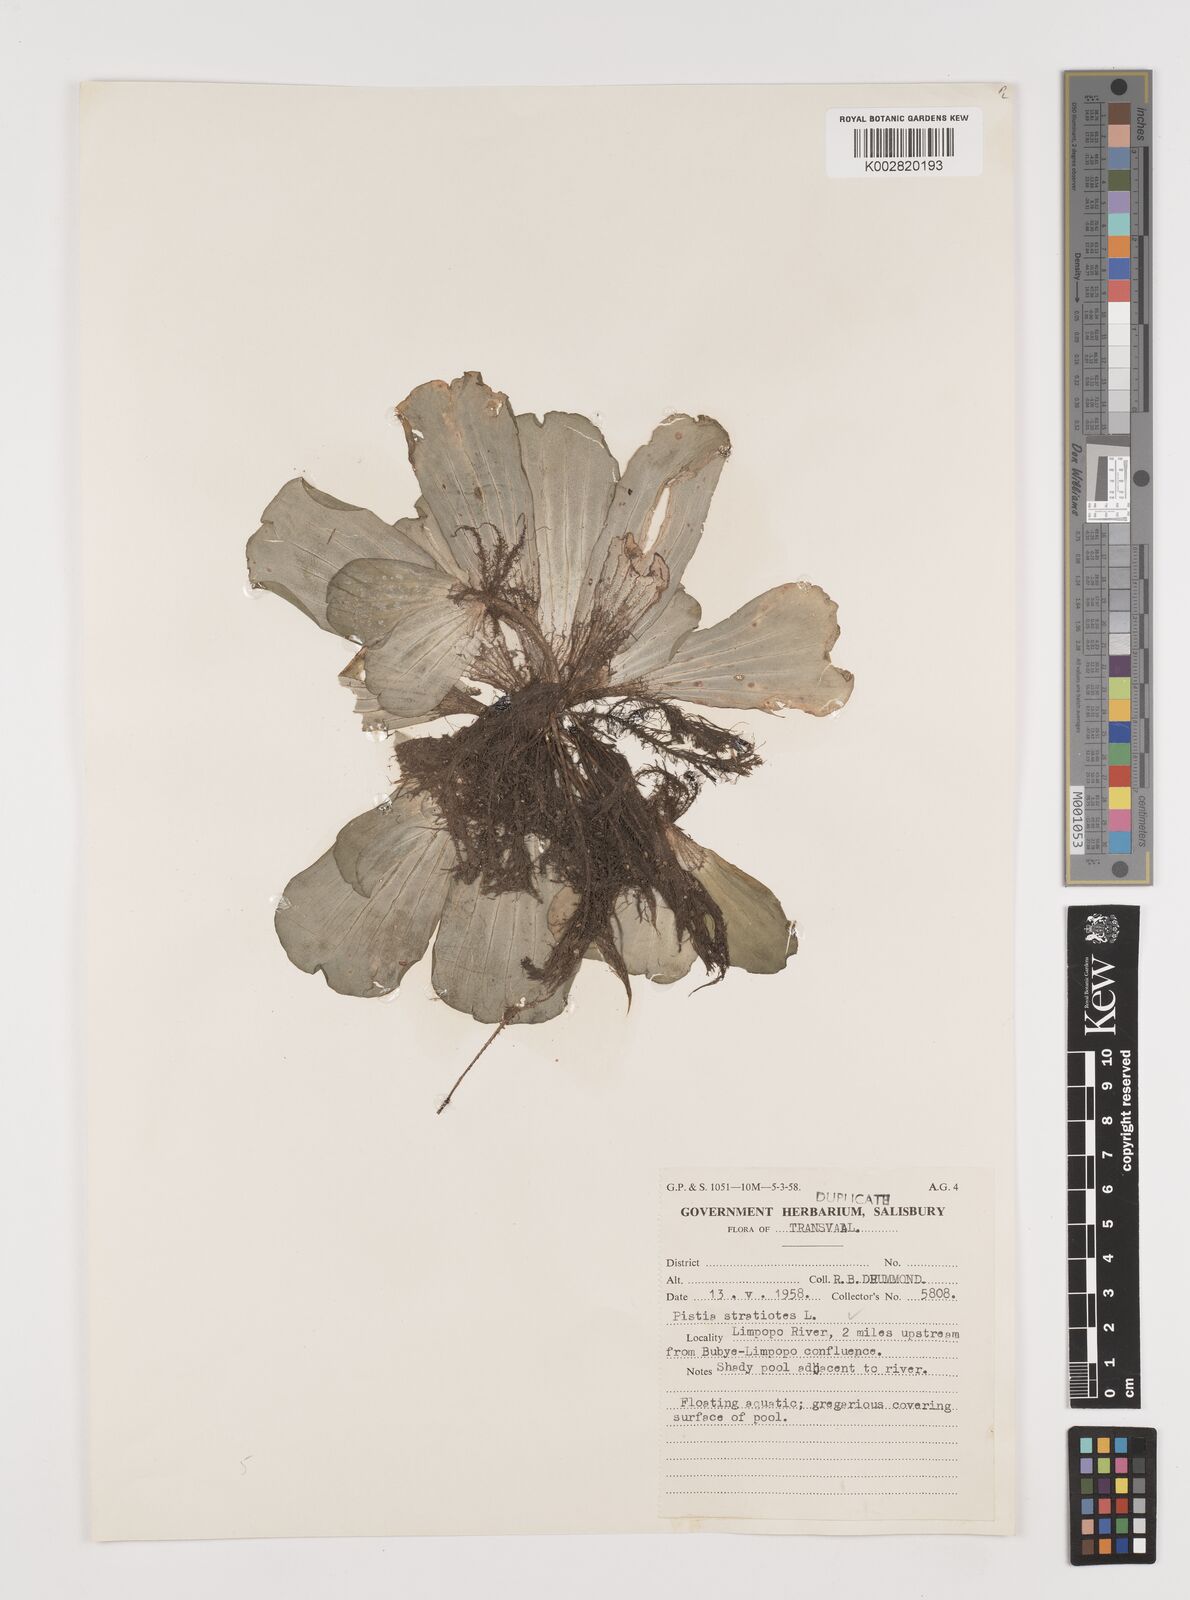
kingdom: Plantae
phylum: Tracheophyta
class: Liliopsida
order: Alismatales
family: Araceae
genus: Pistia
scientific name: Pistia stratiotes
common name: Water lettuce
